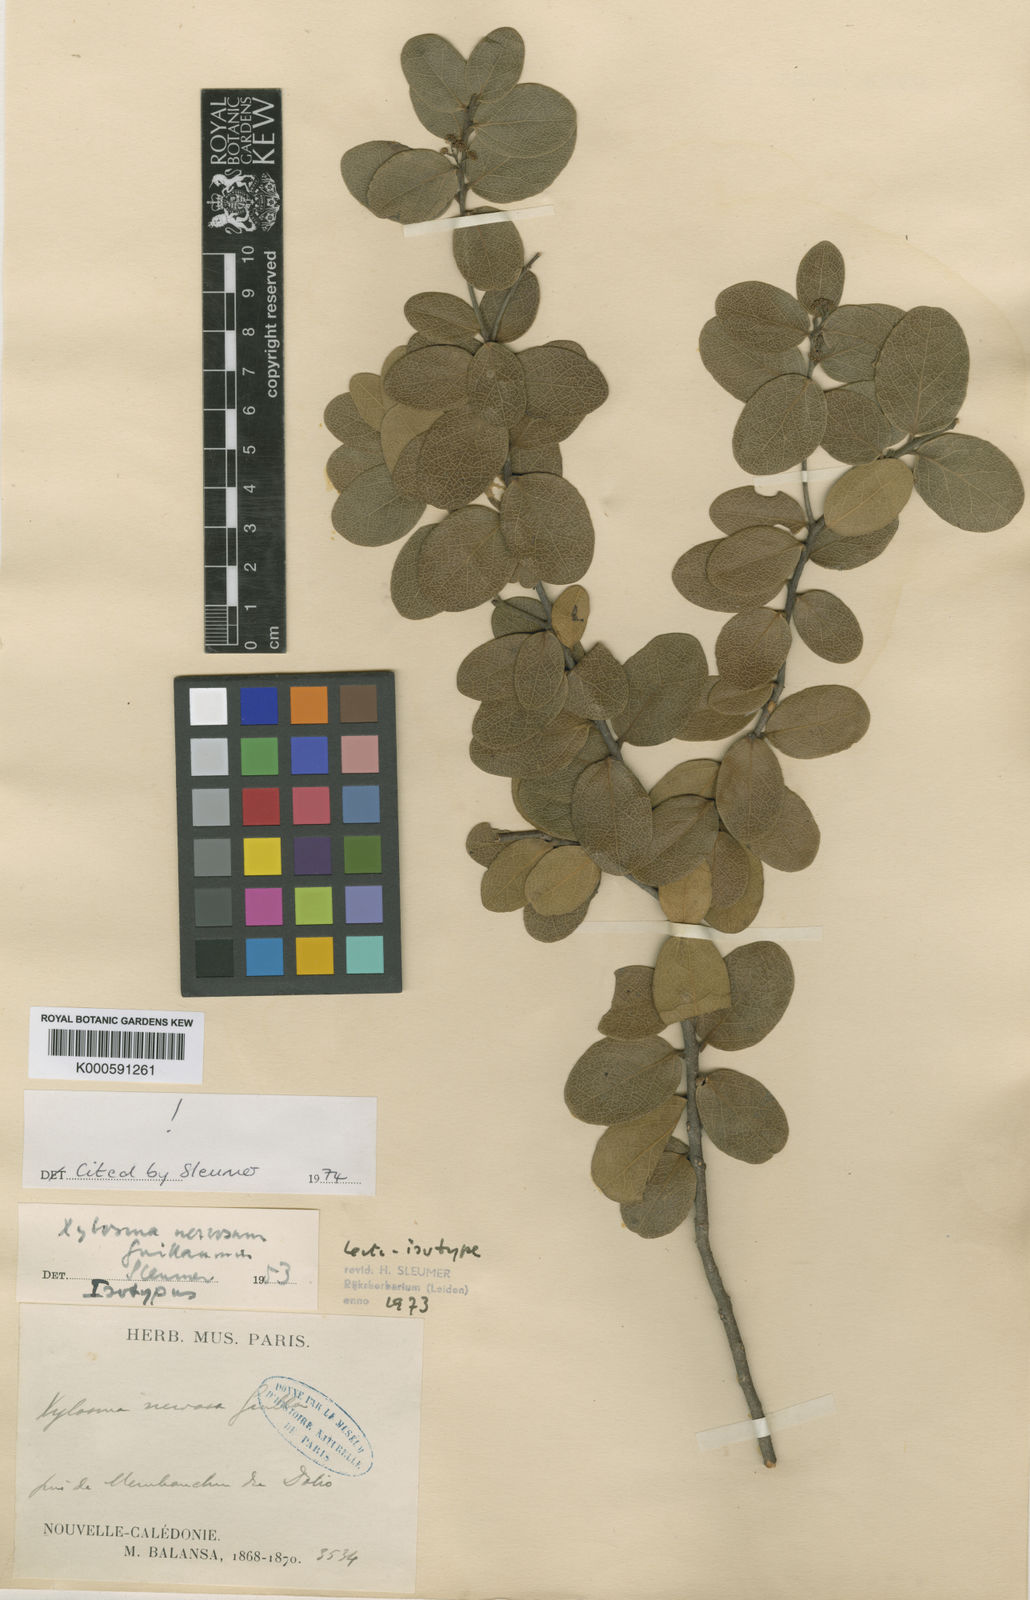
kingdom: Plantae
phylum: Tracheophyta
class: Magnoliopsida
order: Malpighiales
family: Salicaceae
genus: Xylosma
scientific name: Xylosma nervosa
